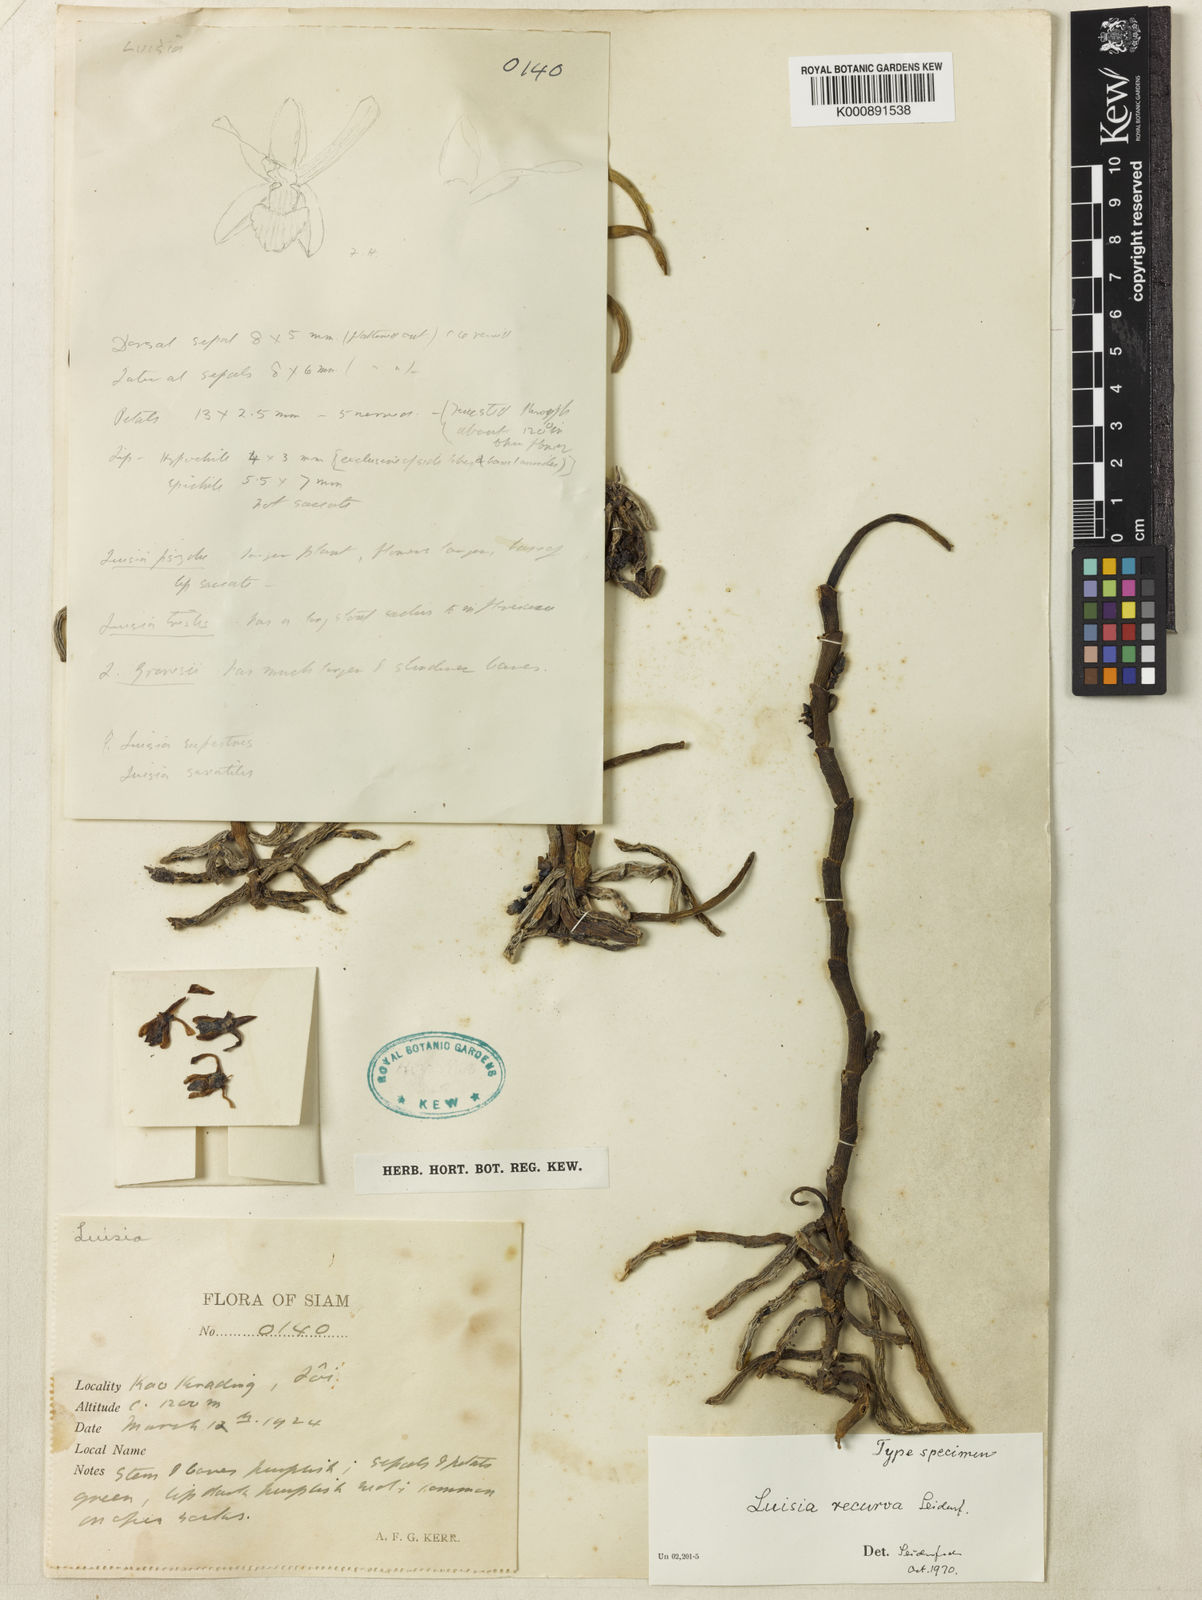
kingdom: Plantae
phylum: Tracheophyta
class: Liliopsida
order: Asparagales
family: Orchidaceae
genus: Luisia
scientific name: Luisia recurva
